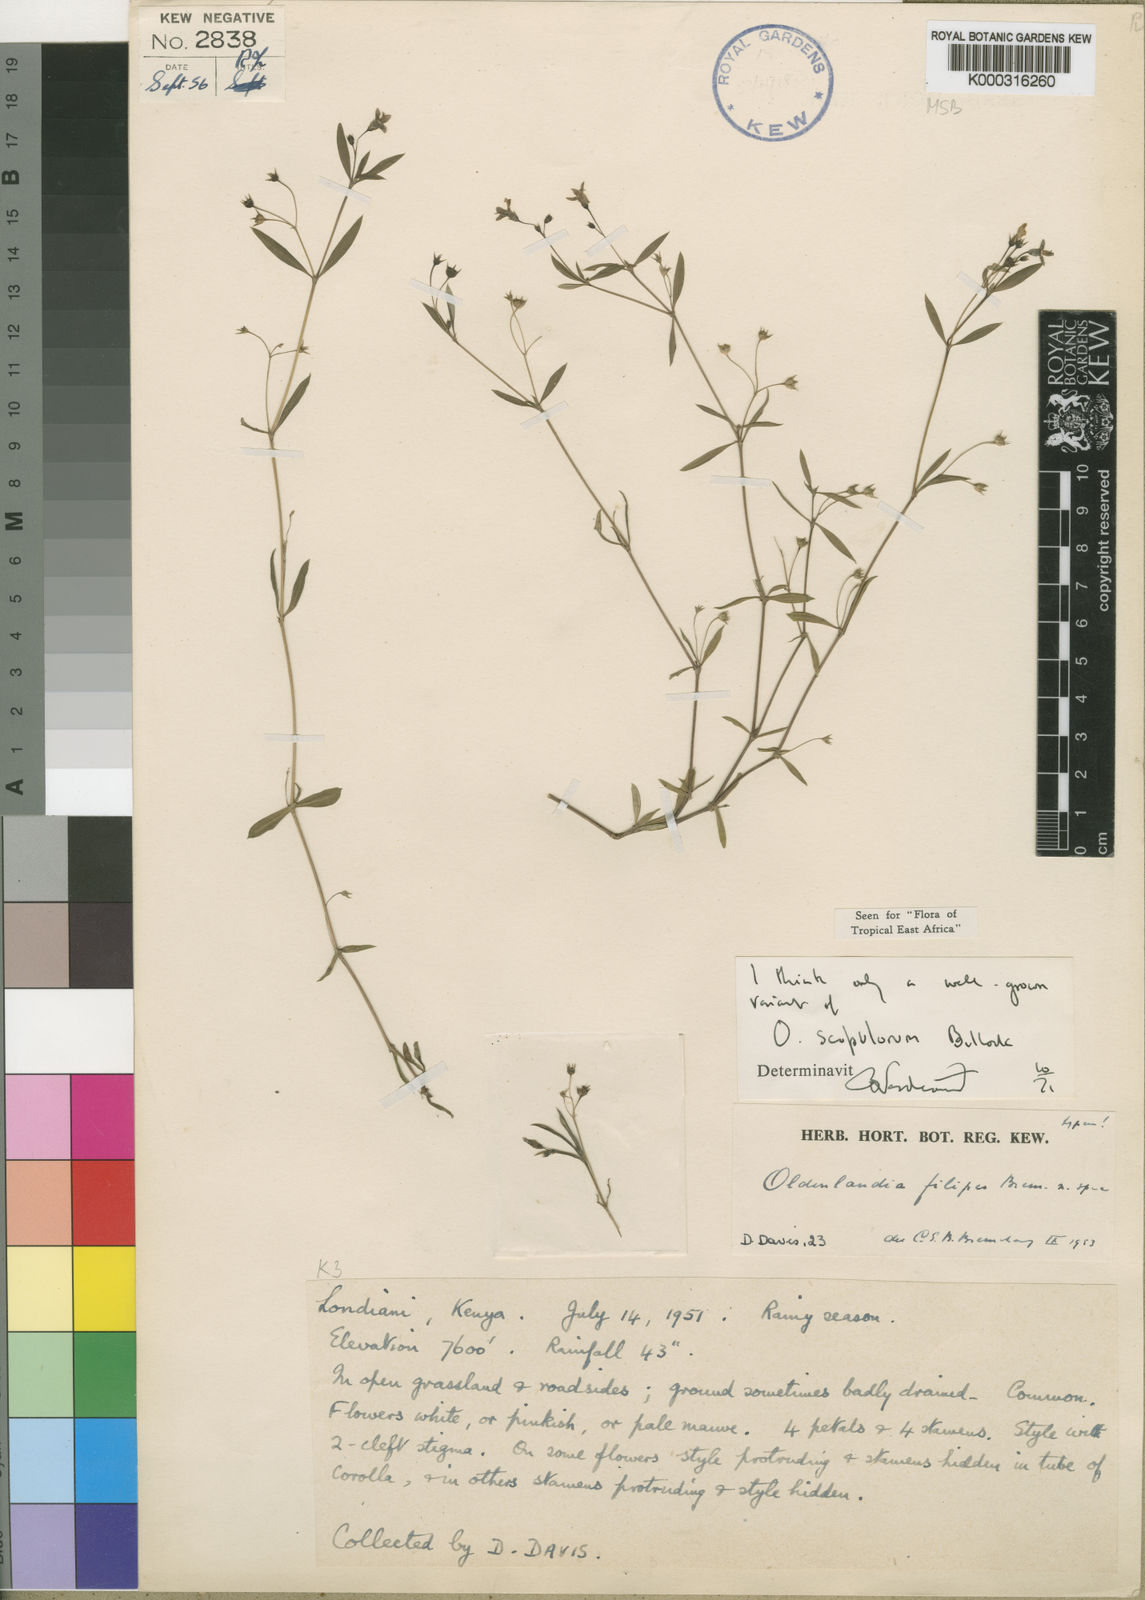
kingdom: Plantae
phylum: Tracheophyta
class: Magnoliopsida
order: Gentianales
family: Rubiaceae
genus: Oldenlandia
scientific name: Oldenlandia scopulorum
